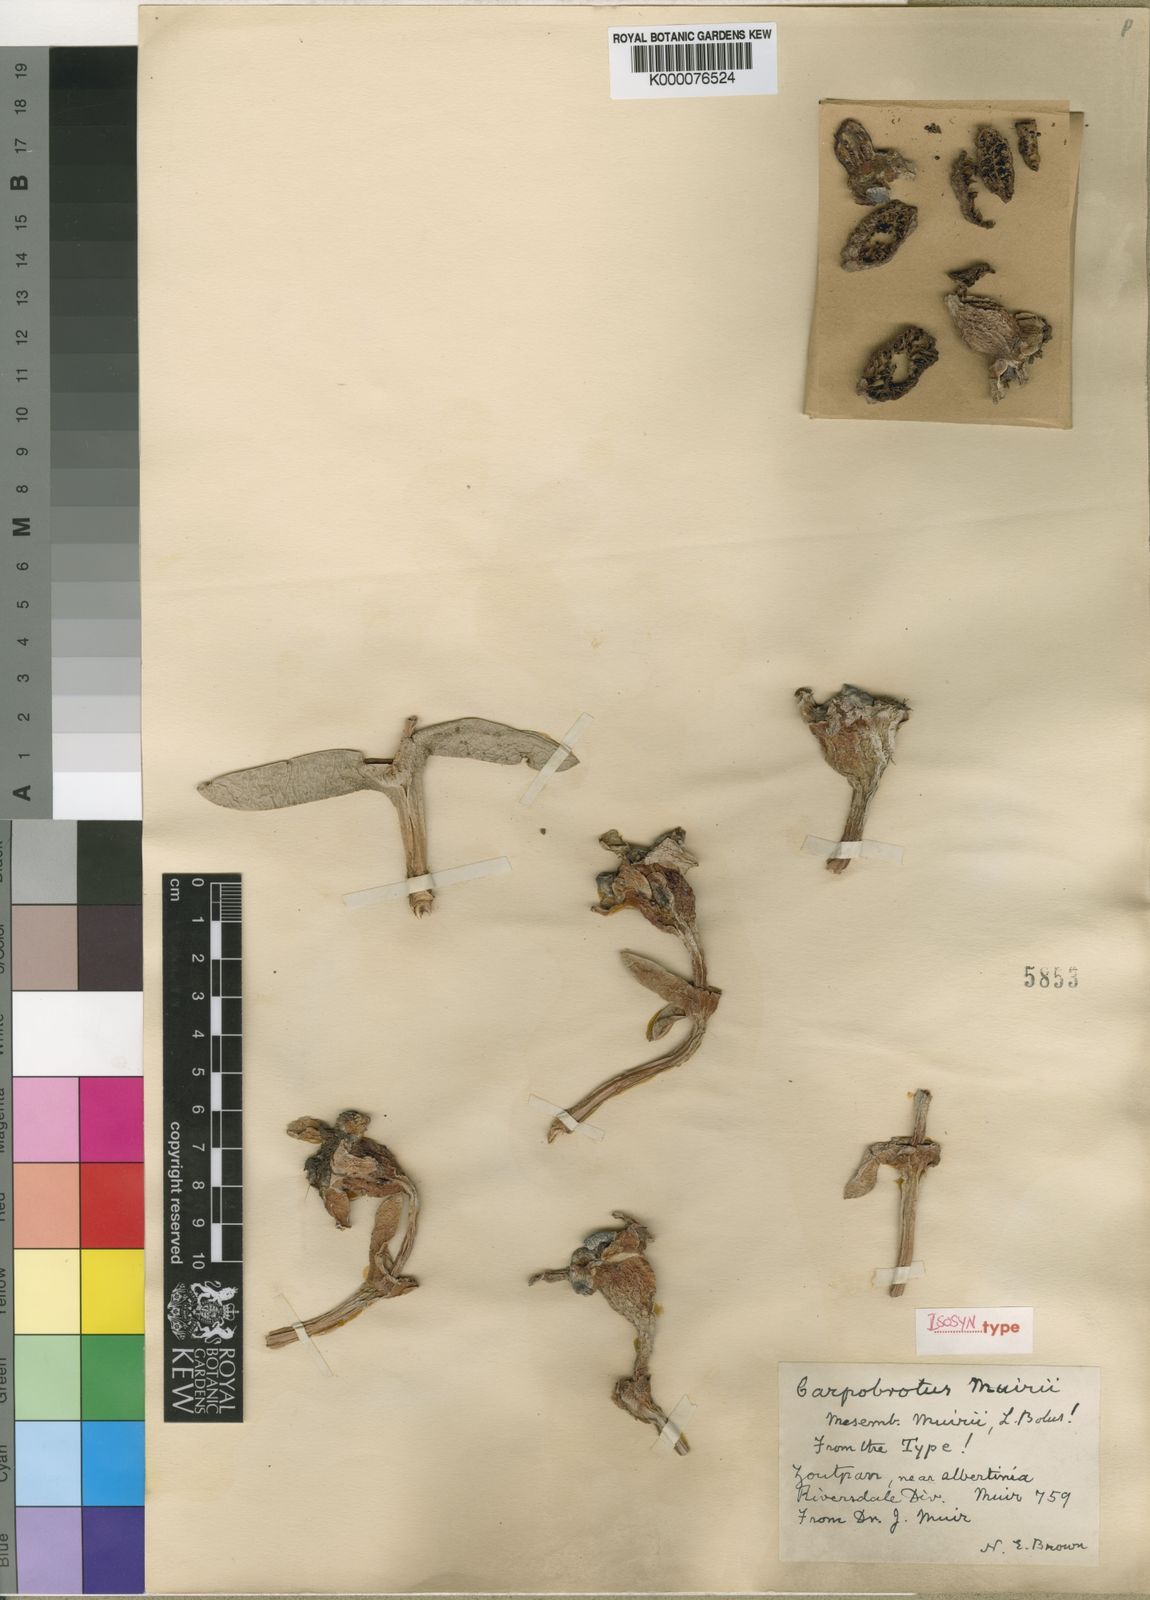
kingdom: Plantae
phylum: Tracheophyta
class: Magnoliopsida
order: Caryophyllales
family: Aizoaceae
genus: Carpobrotus
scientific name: Carpobrotus muirii
